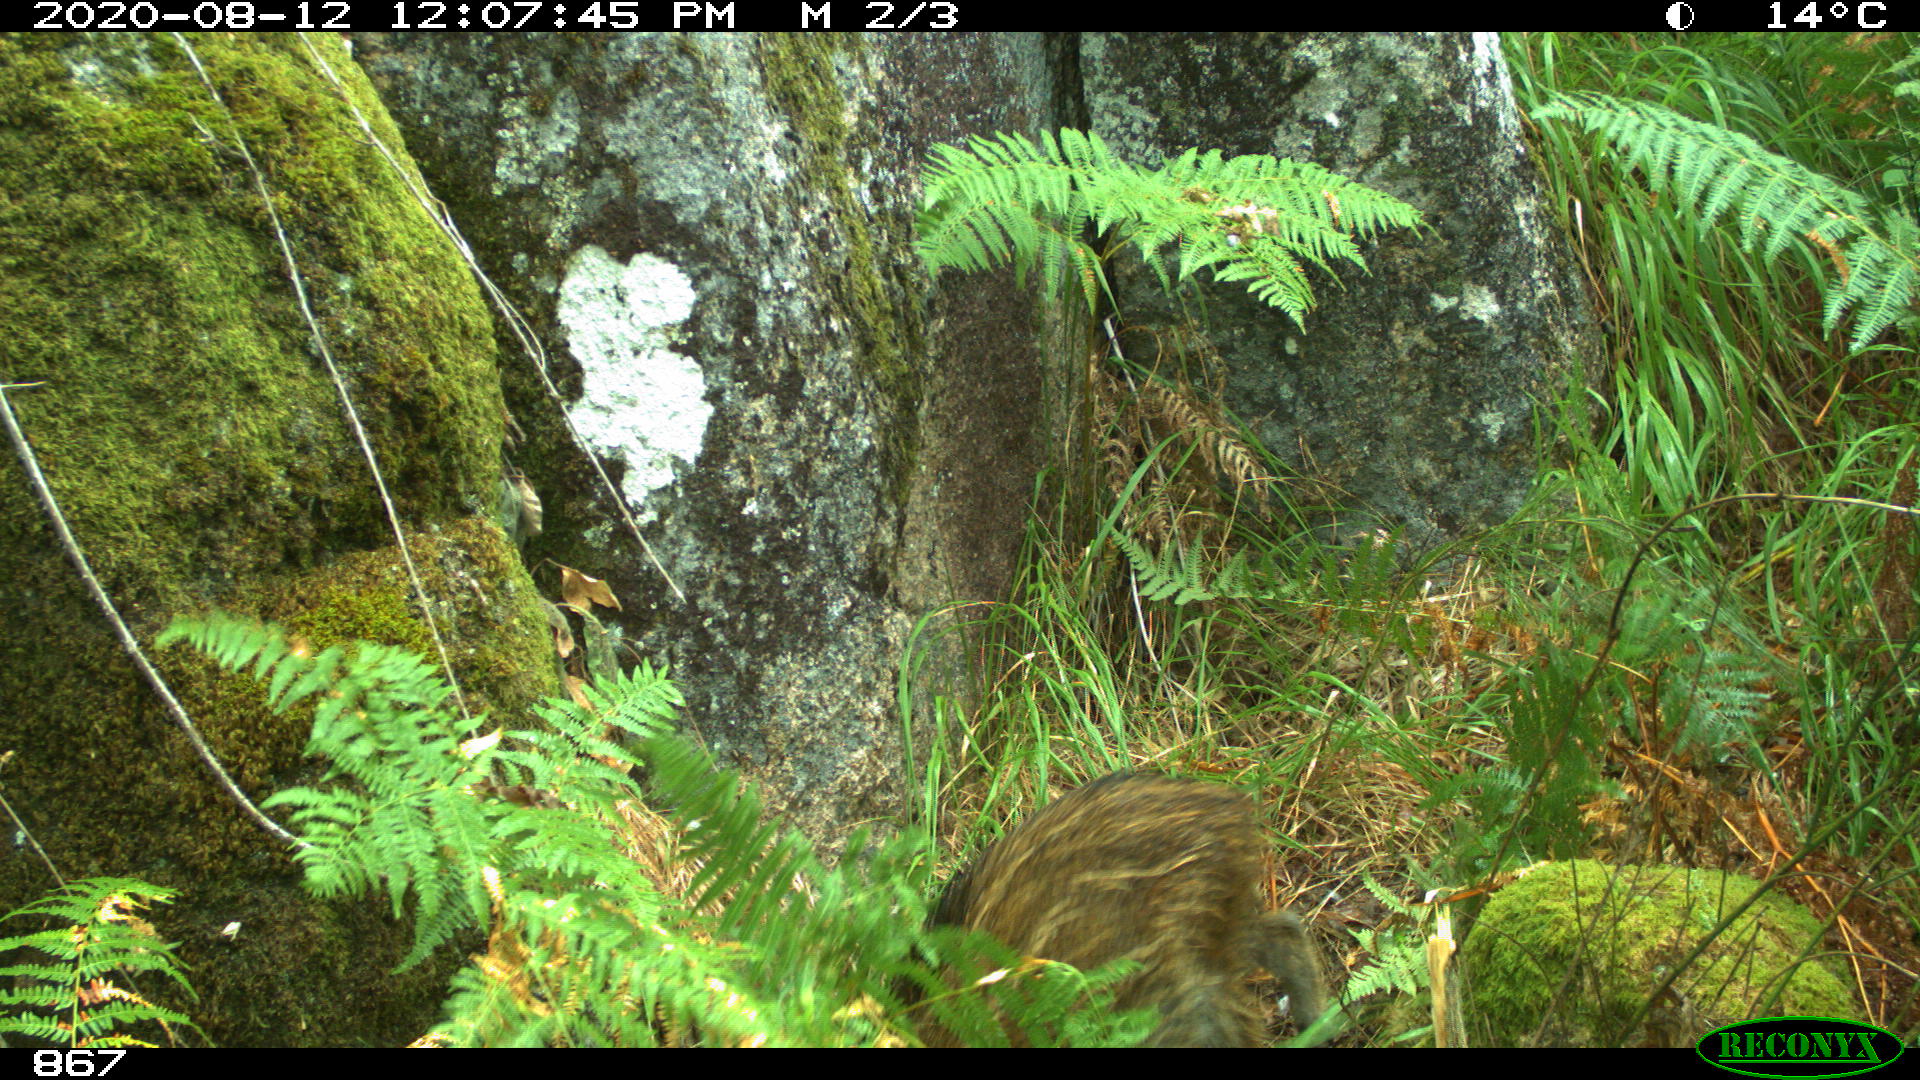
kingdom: Animalia
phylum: Chordata
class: Mammalia
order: Artiodactyla
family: Suidae
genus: Sus
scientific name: Sus scrofa
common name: Wild boar
